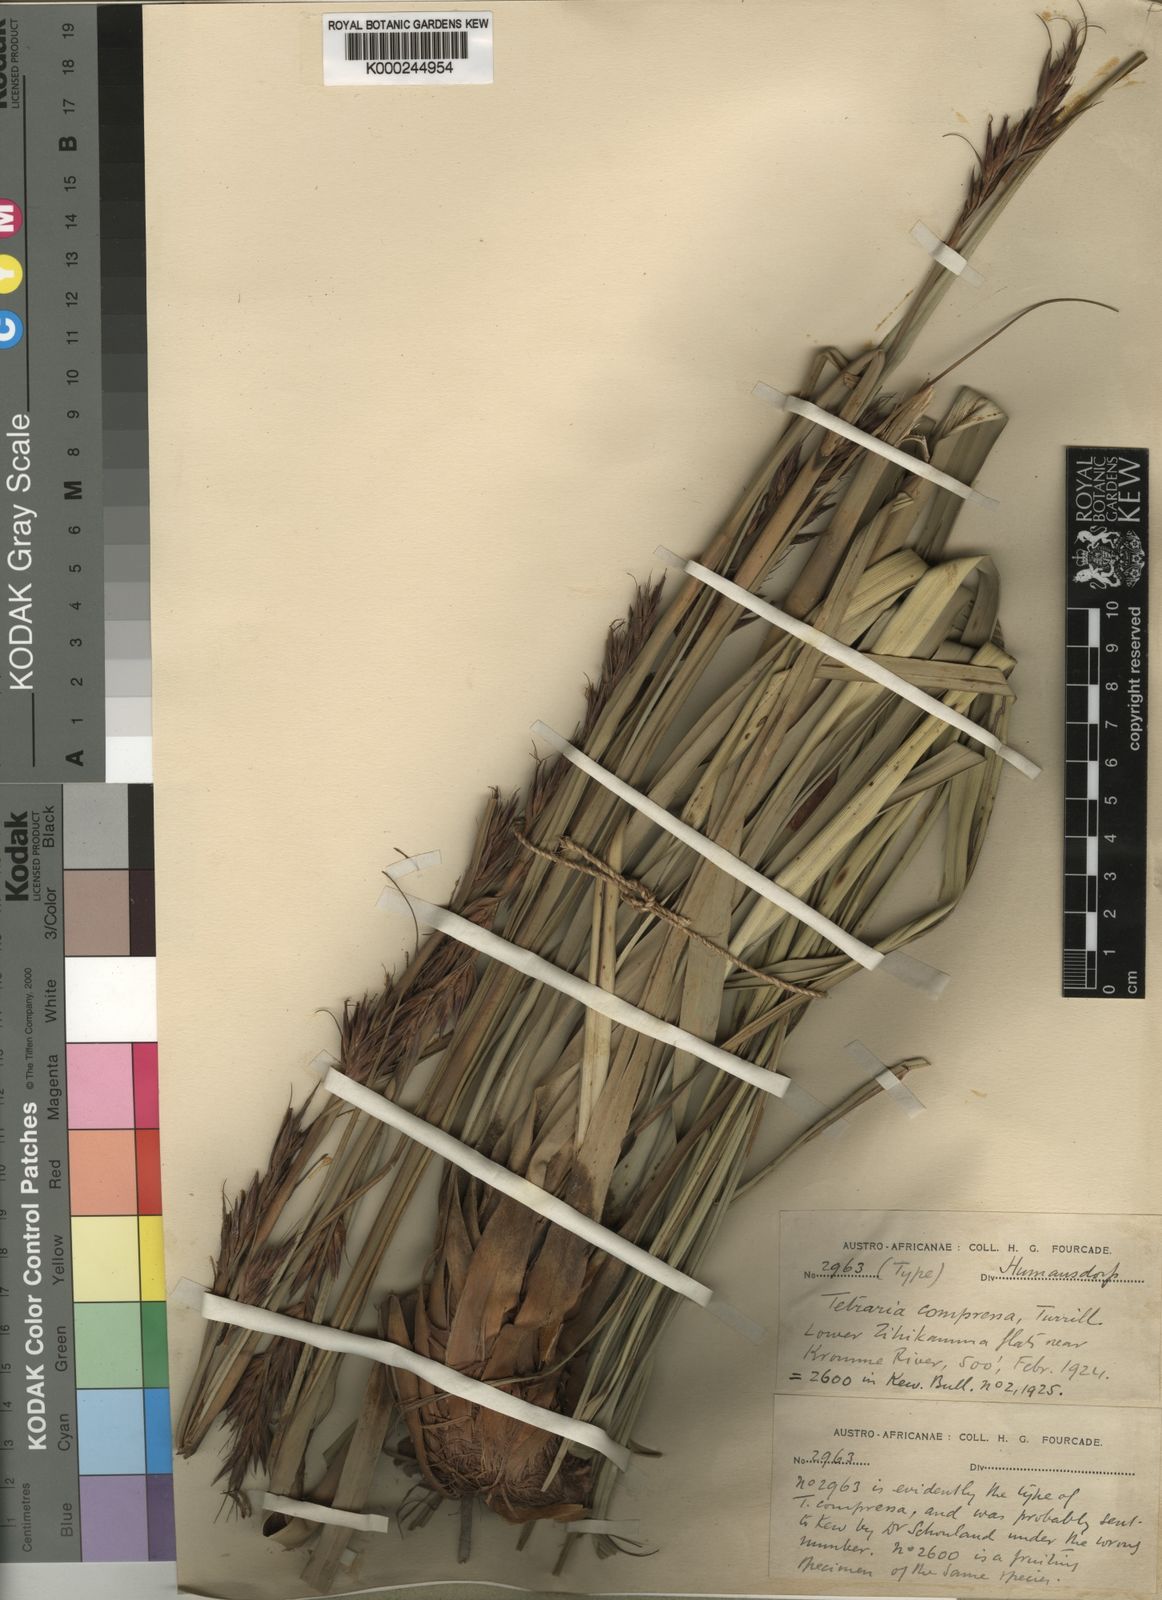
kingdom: Plantae
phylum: Tracheophyta
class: Liliopsida
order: Poales
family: Cyperaceae
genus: Tetraria
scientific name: Tetraria compressa
